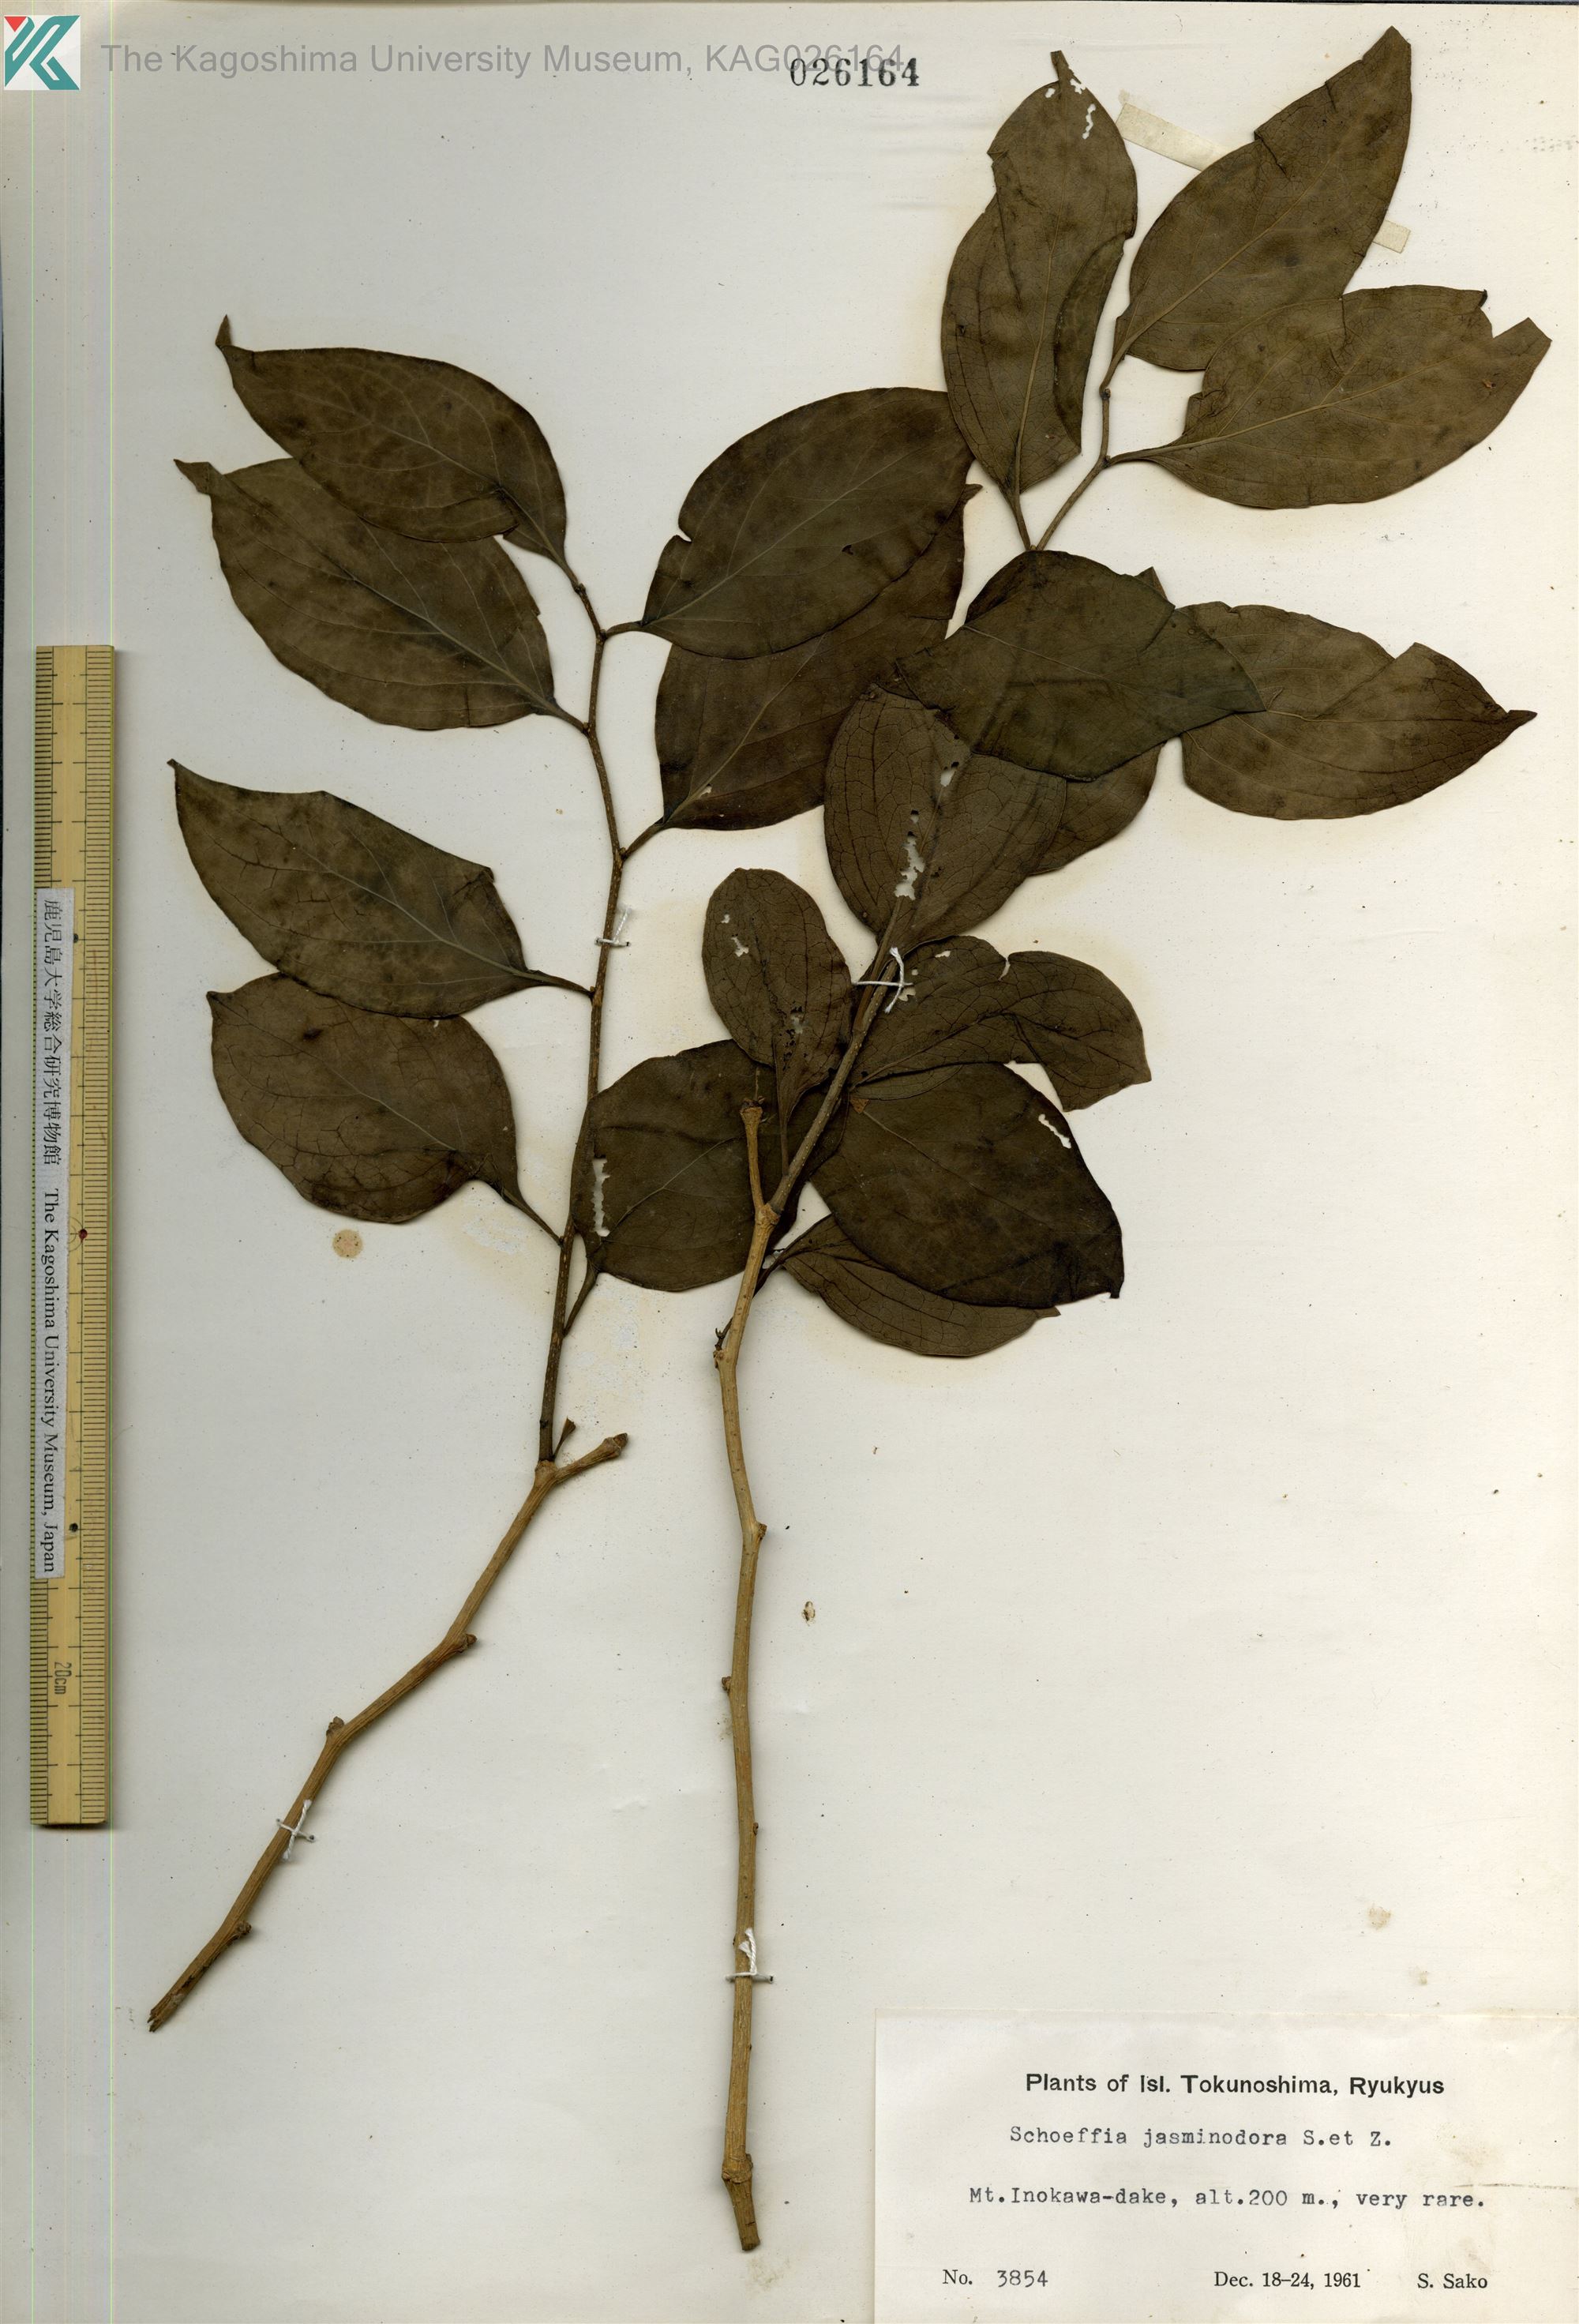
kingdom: Plantae
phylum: Tracheophyta
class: Magnoliopsida
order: Santalales
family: Schoepfiaceae
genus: Schoepfia
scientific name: Schoepfia jasminodora
